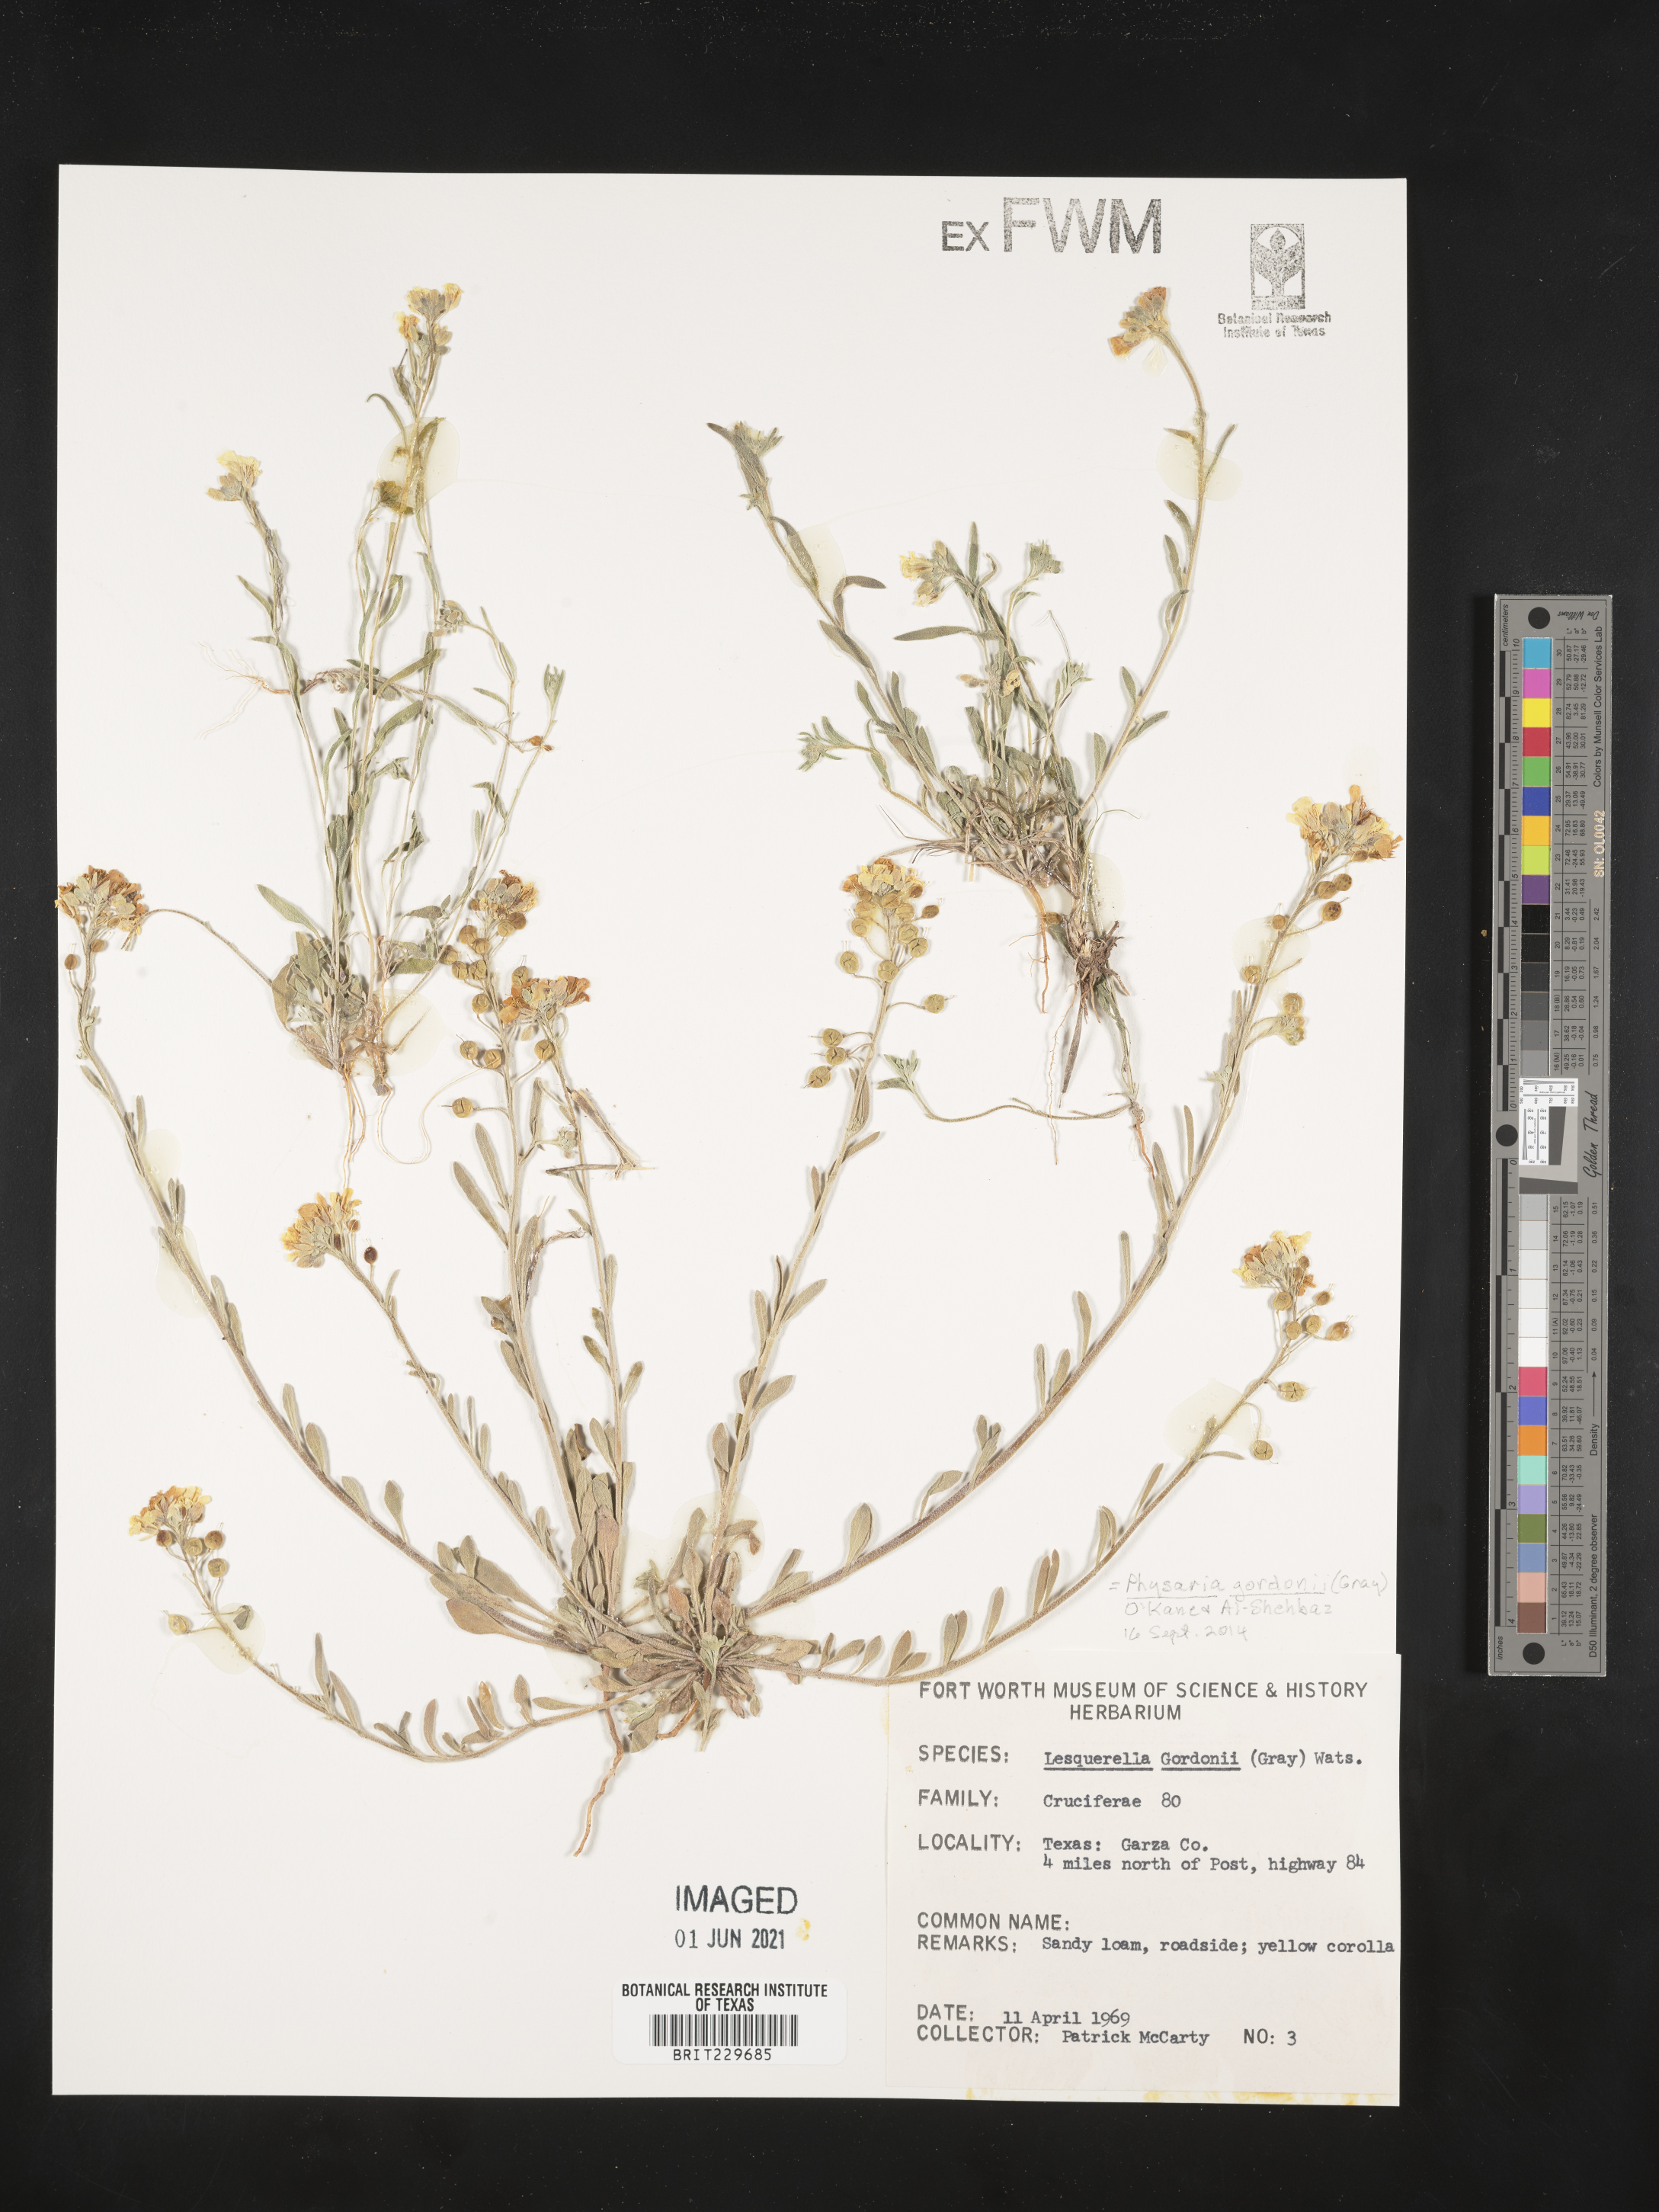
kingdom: Plantae
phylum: Tracheophyta
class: Magnoliopsida
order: Brassicales
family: Brassicaceae
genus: Physaria
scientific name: Physaria gordonii
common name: Gordon's bladderpod
